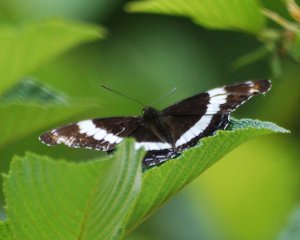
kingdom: Animalia
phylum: Arthropoda
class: Insecta
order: Lepidoptera
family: Nymphalidae
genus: Limenitis
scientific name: Limenitis arthemis
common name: Red-spotted Admiral
